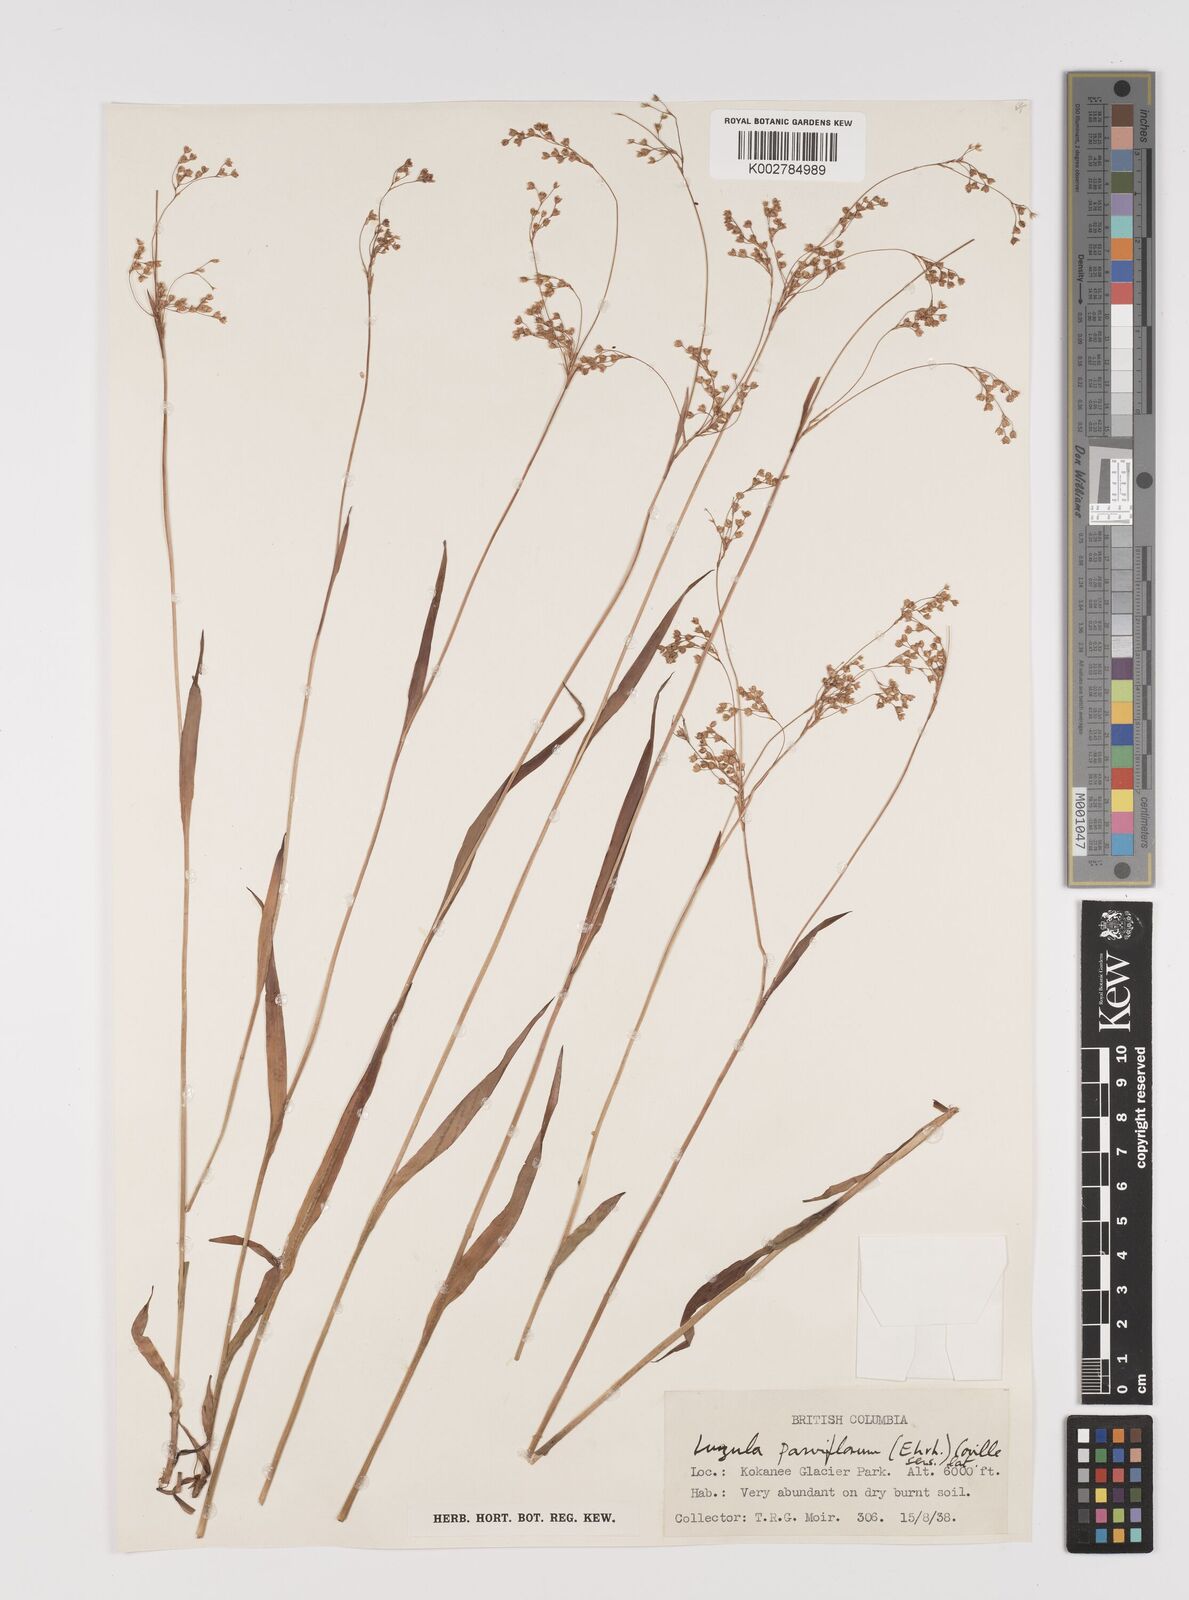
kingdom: Plantae
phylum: Tracheophyta
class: Liliopsida
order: Poales
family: Juncaceae
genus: Luzula
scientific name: Luzula parviflora
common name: Millet woodrush
